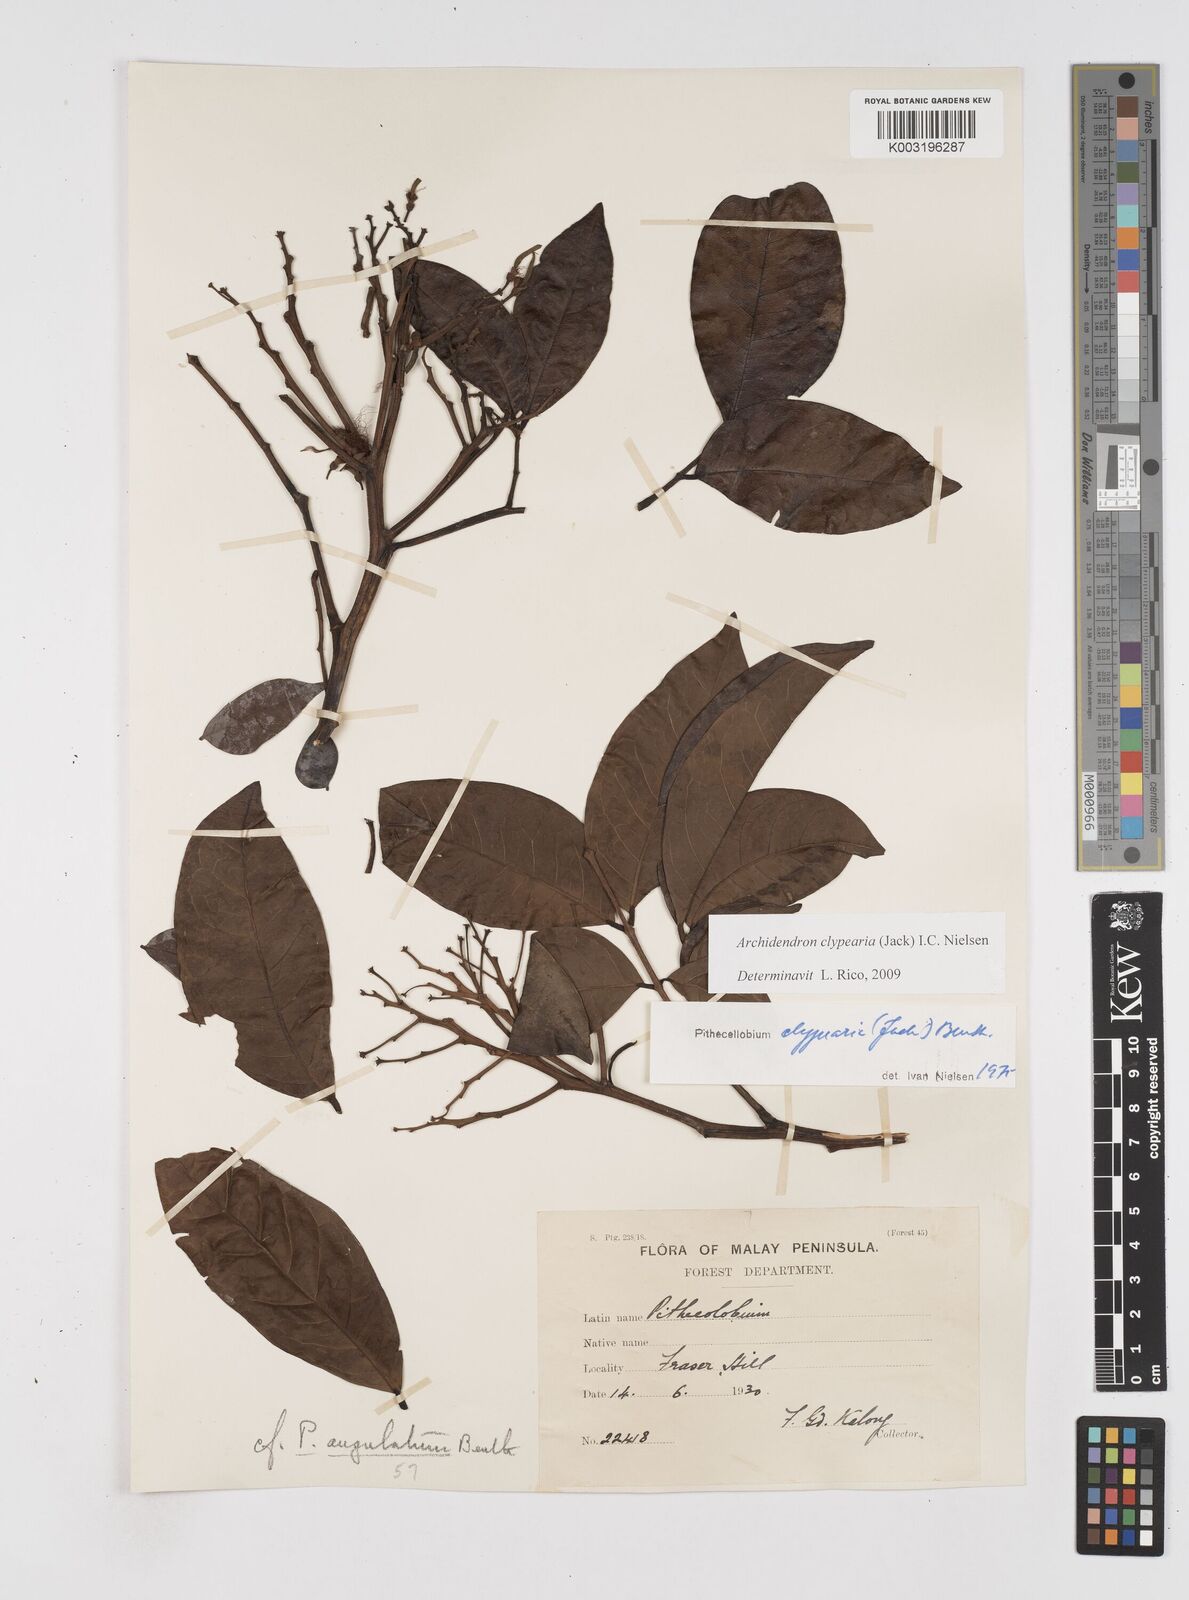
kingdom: Plantae
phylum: Tracheophyta
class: Magnoliopsida
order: Fabales
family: Fabaceae
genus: Archidendron
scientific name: Archidendron clypearia
